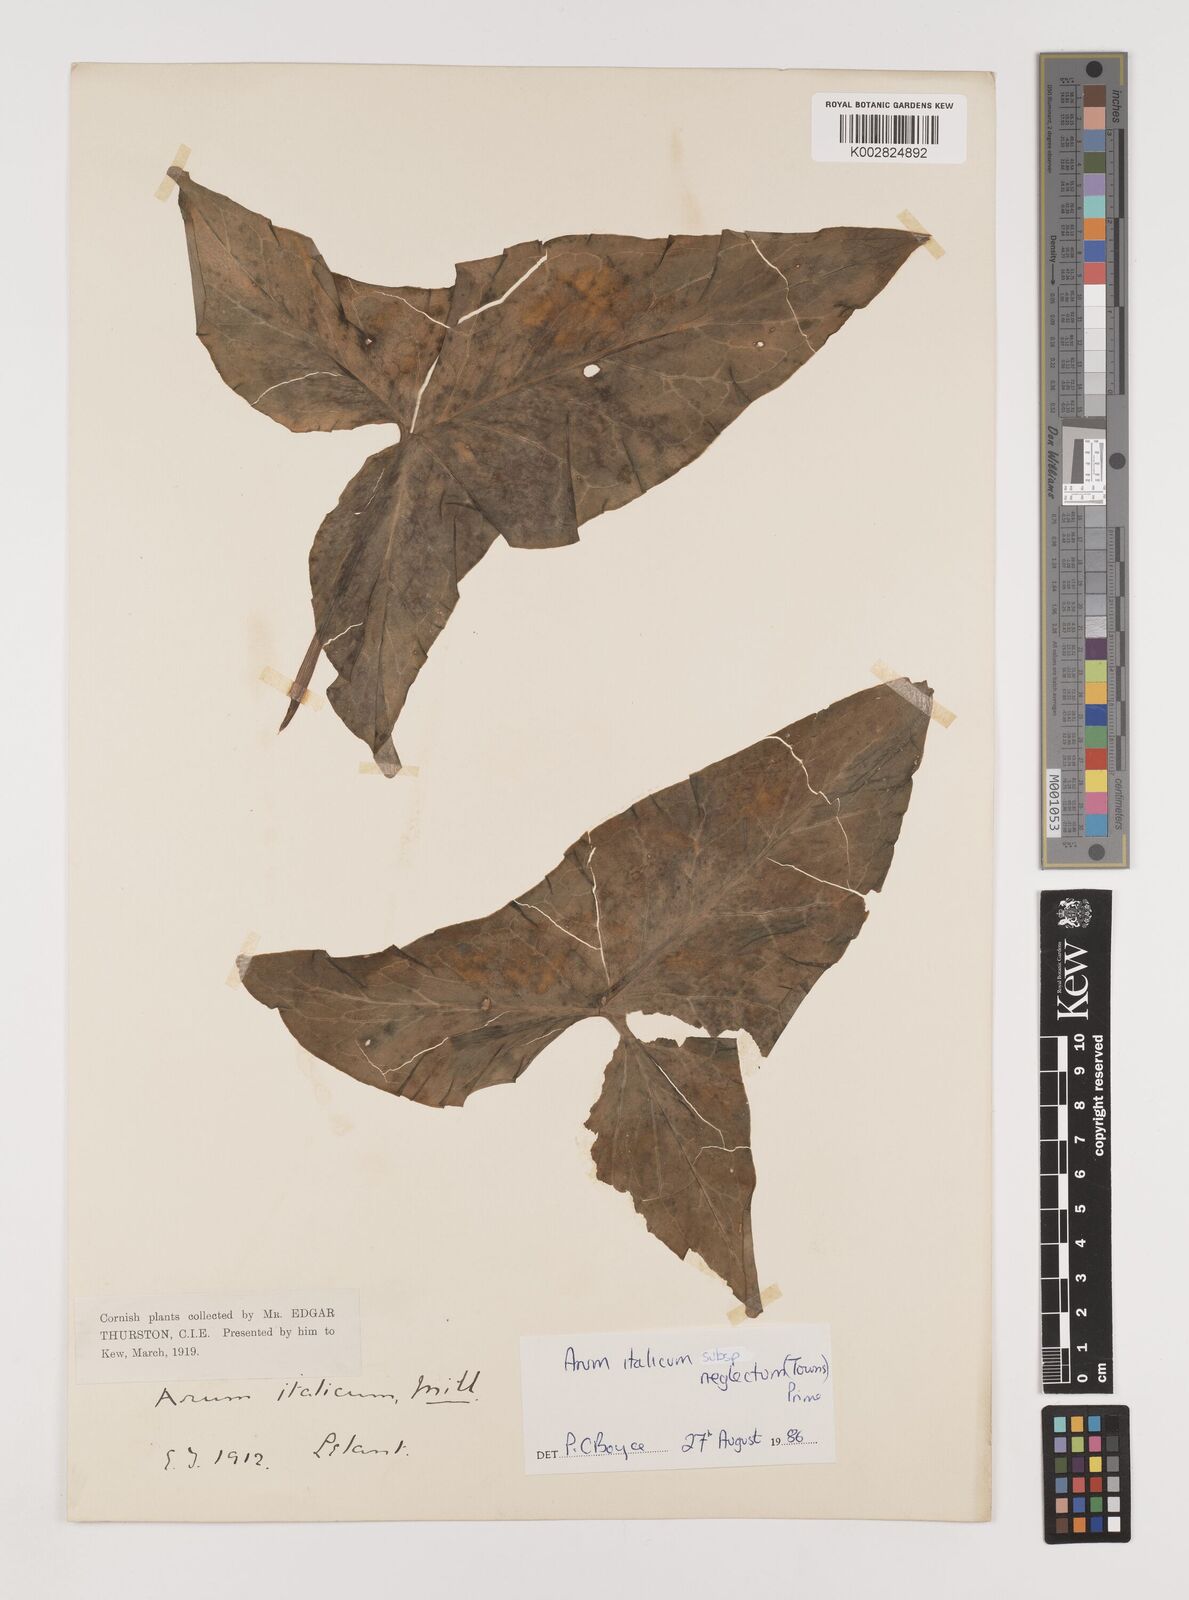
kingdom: Plantae
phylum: Tracheophyta
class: Liliopsida
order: Alismatales
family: Araceae
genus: Arum
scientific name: Arum italicum
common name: Italian lords-and-ladies
